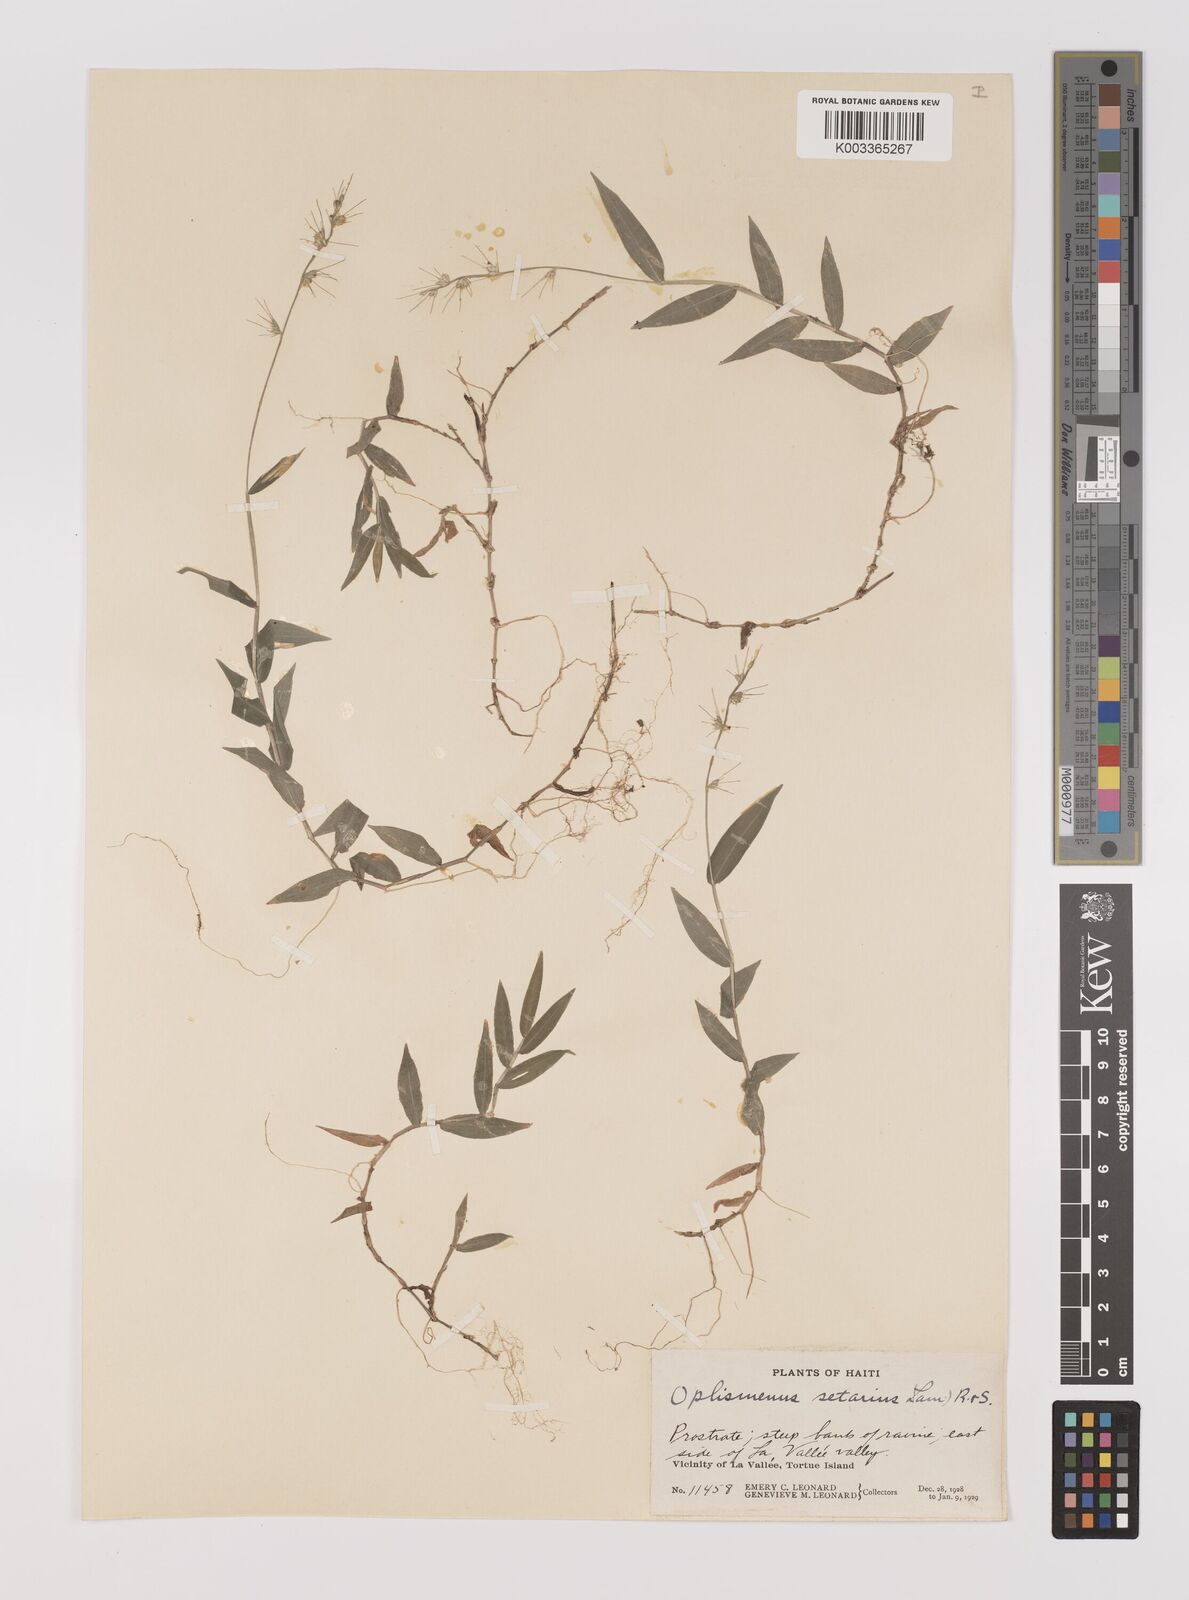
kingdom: Plantae
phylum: Tracheophyta
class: Liliopsida
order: Poales
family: Poaceae
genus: Oplismenus
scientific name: Oplismenus undulatifolius
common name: Wavyleaf basketgrass
